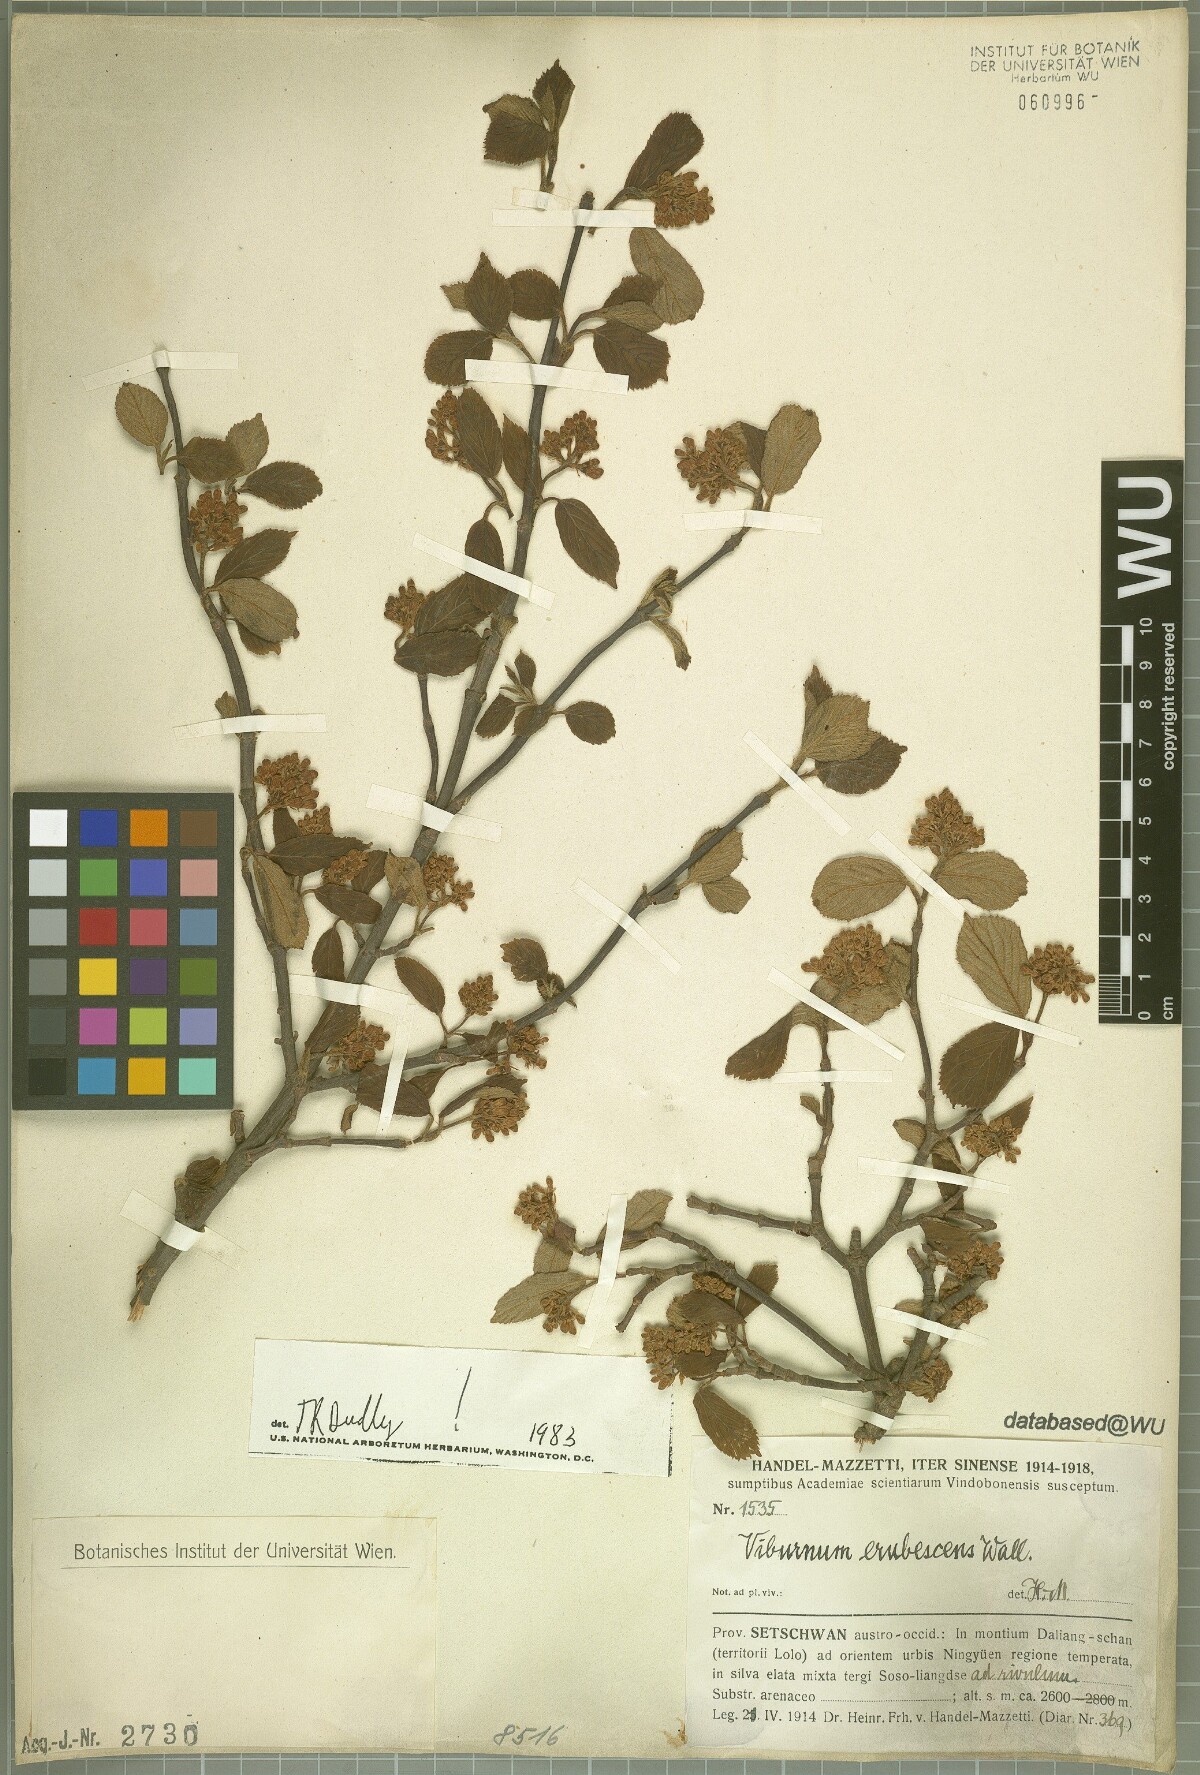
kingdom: Plantae
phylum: Tracheophyta
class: Magnoliopsida
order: Dipsacales
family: Viburnaceae
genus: Viburnum
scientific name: Viburnum erubescens
